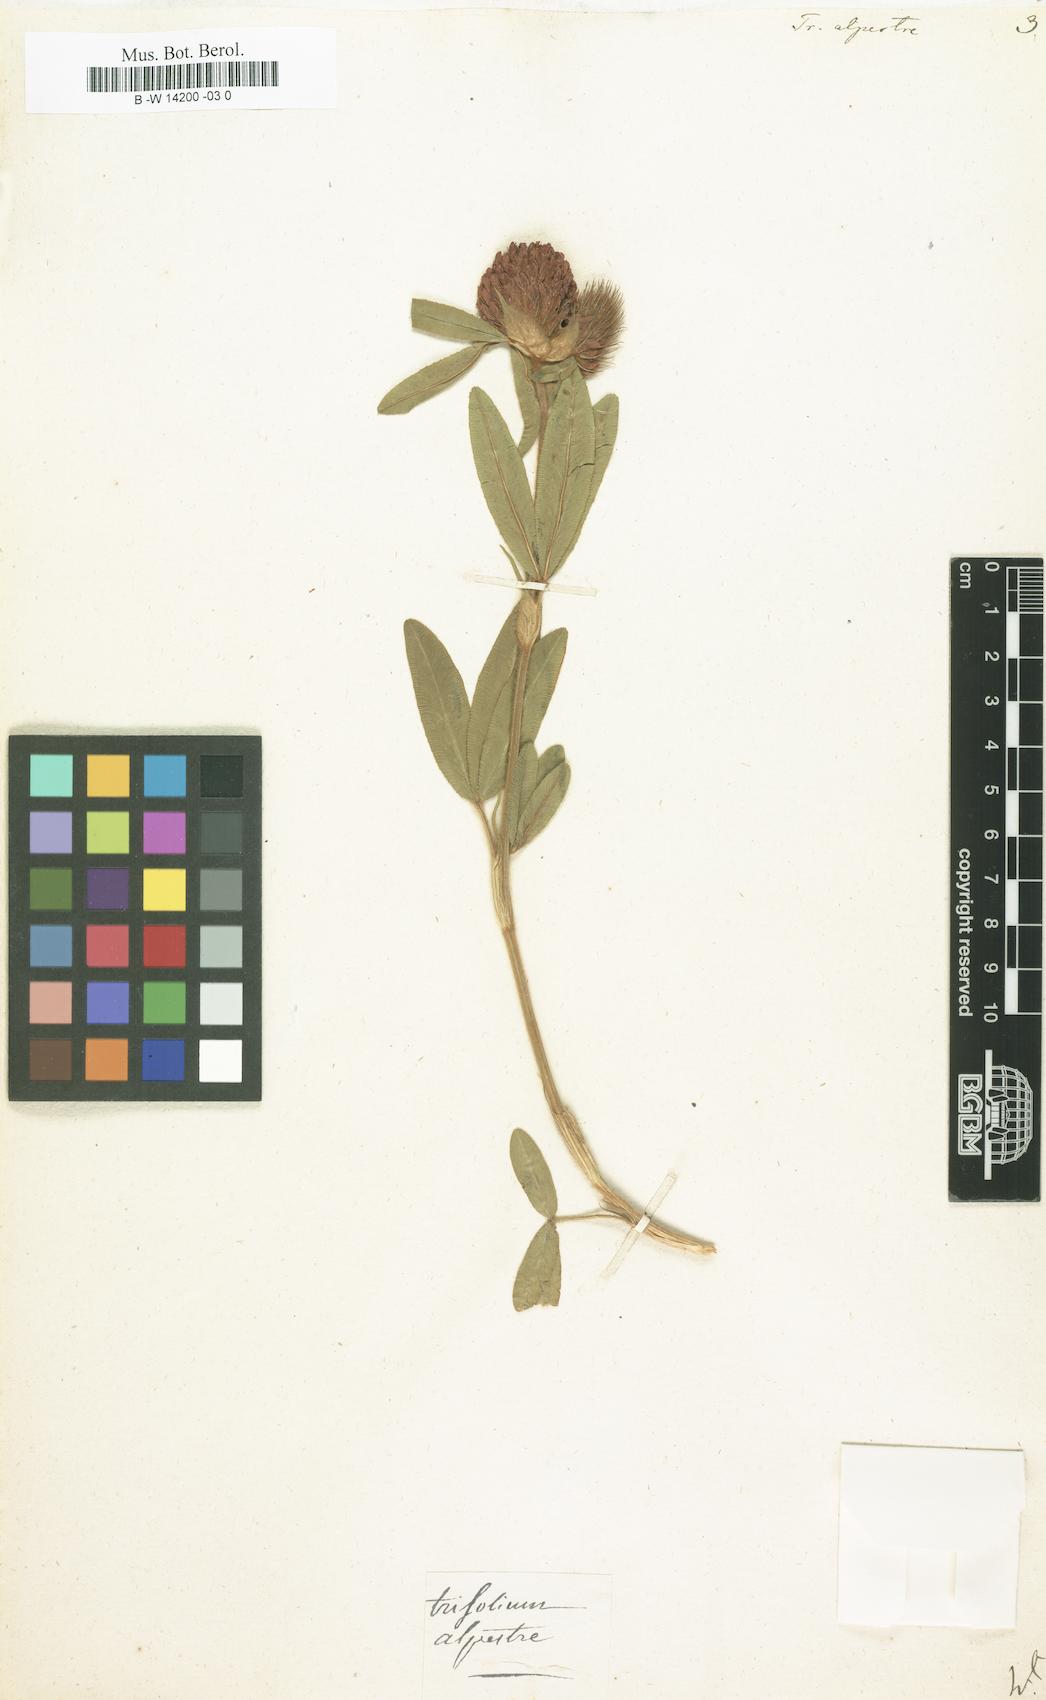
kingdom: Plantae
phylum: Tracheophyta
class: Magnoliopsida
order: Fabales
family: Fabaceae
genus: Trifolium
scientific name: Trifolium alpestre
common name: Owl-head clover
